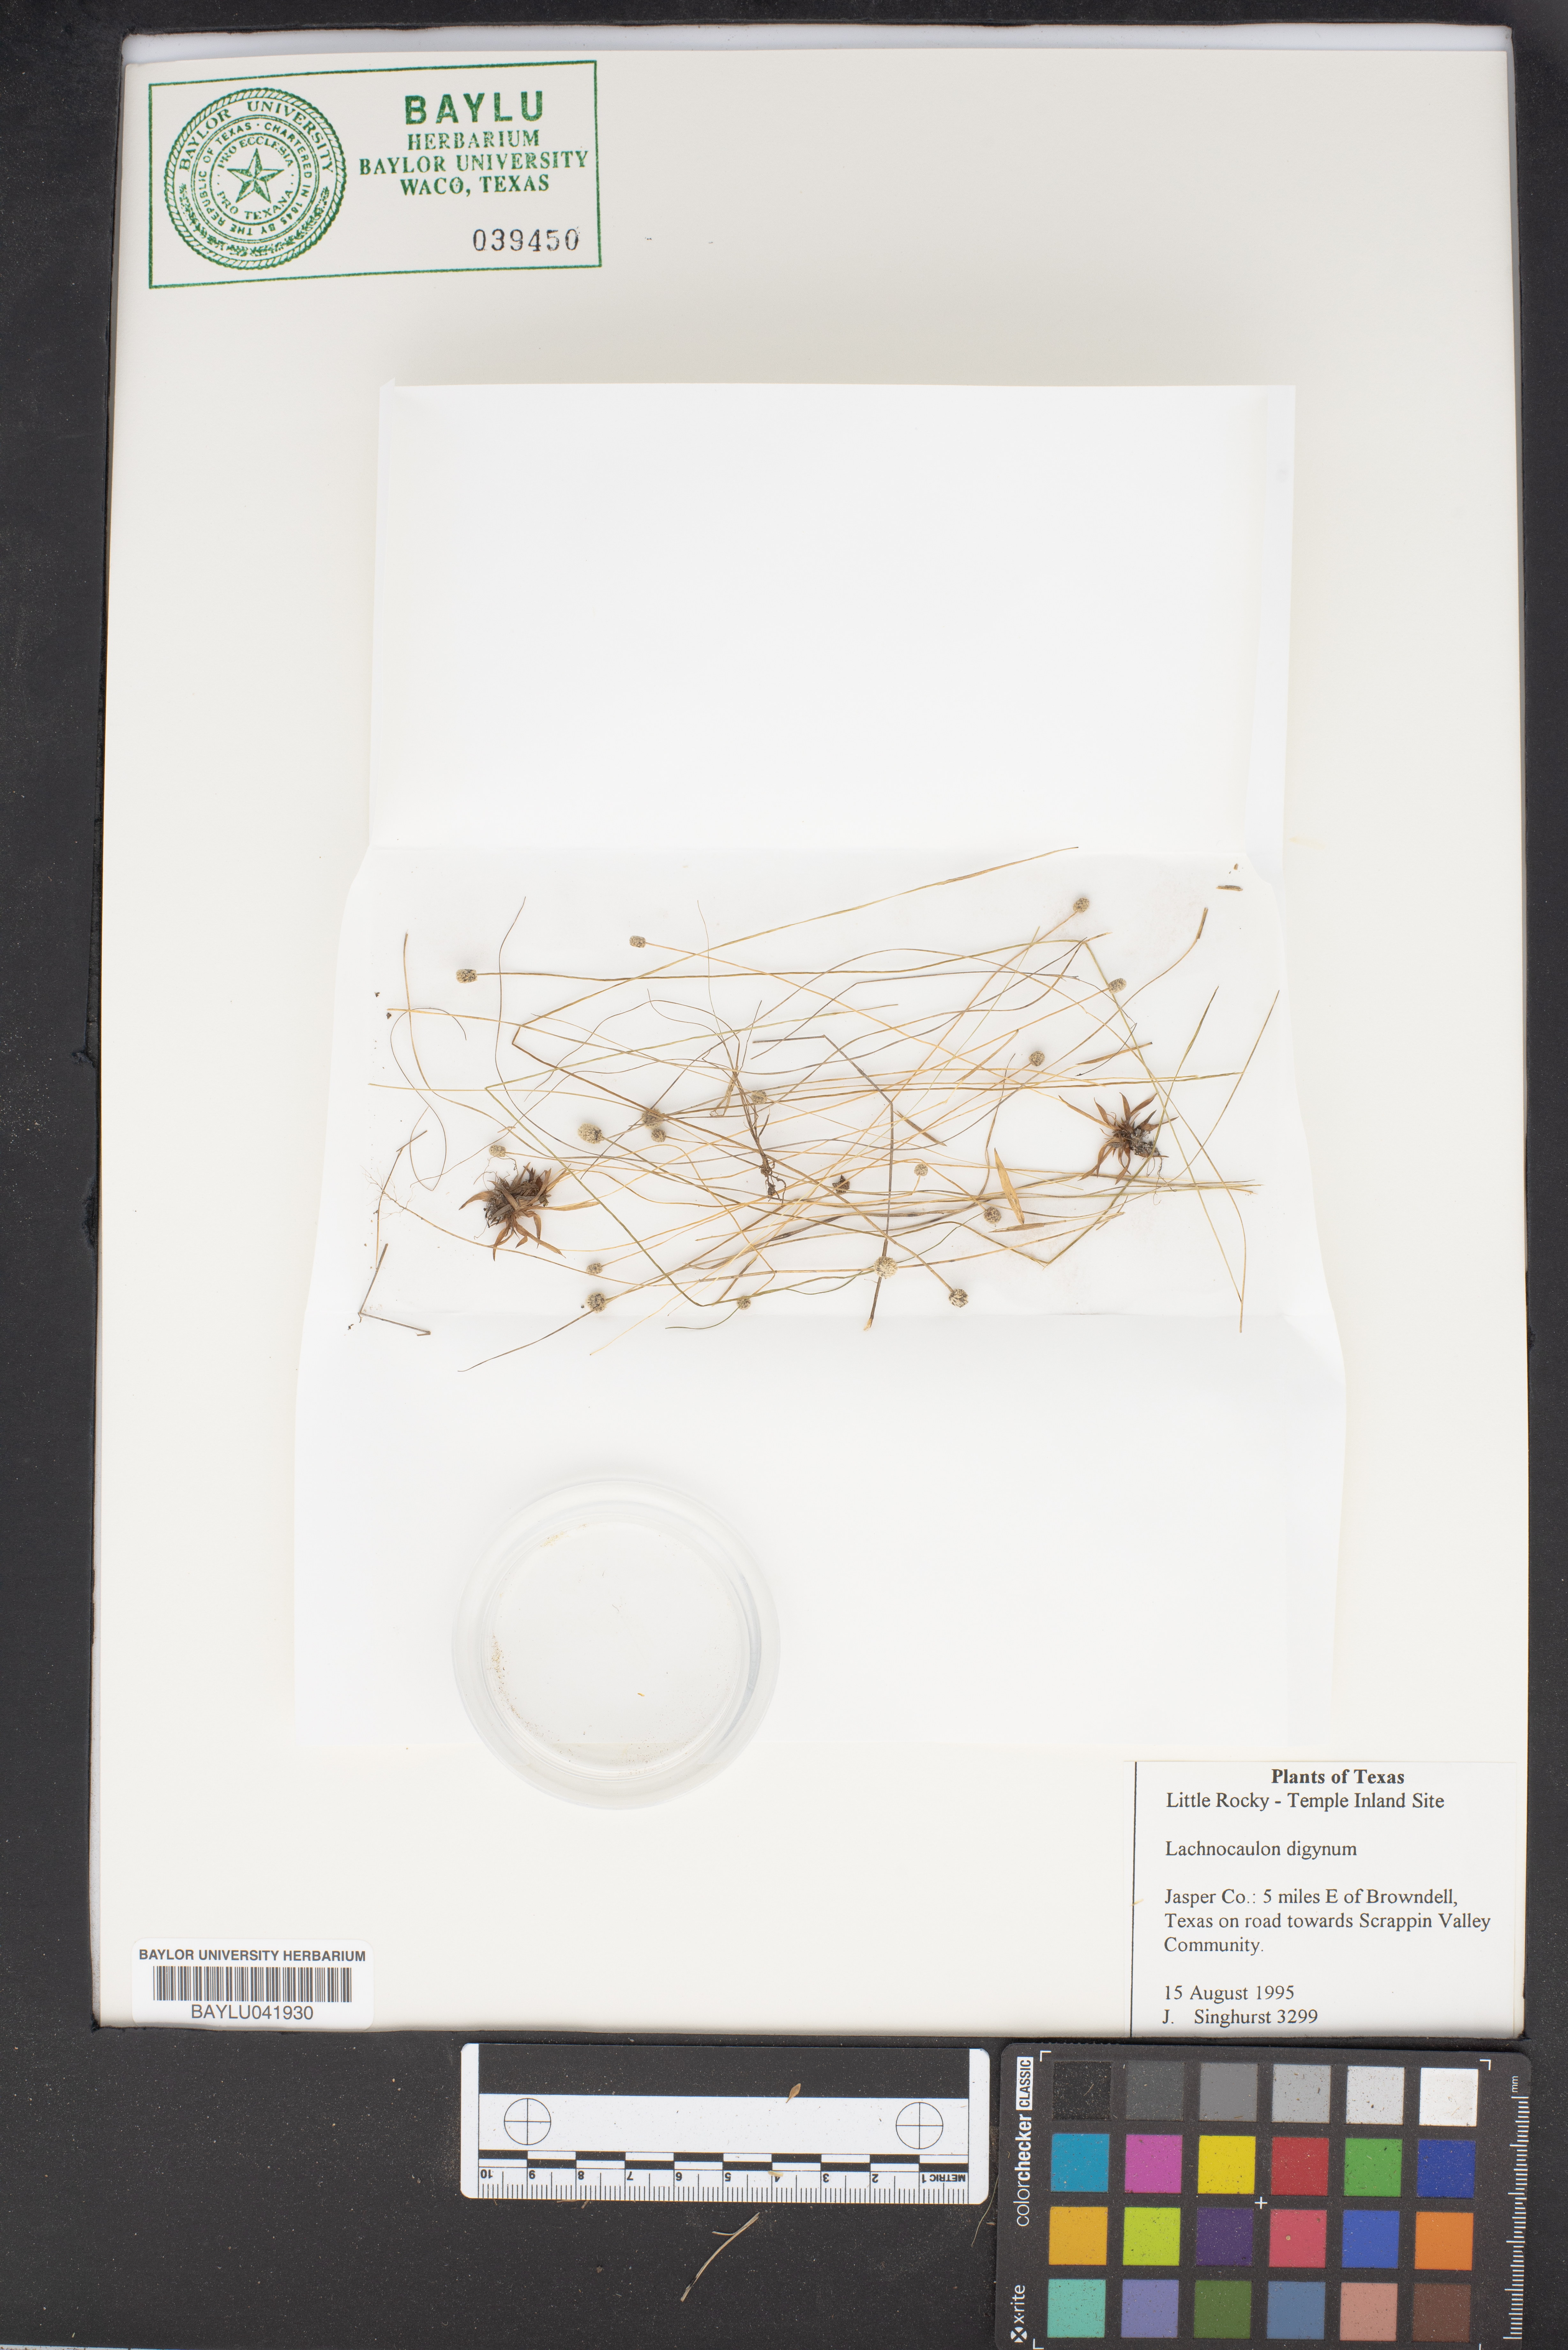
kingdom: Plantae
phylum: Tracheophyta
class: Liliopsida
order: Poales
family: Eriocaulaceae
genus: Paepalanthus
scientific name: Paepalanthus digynus
